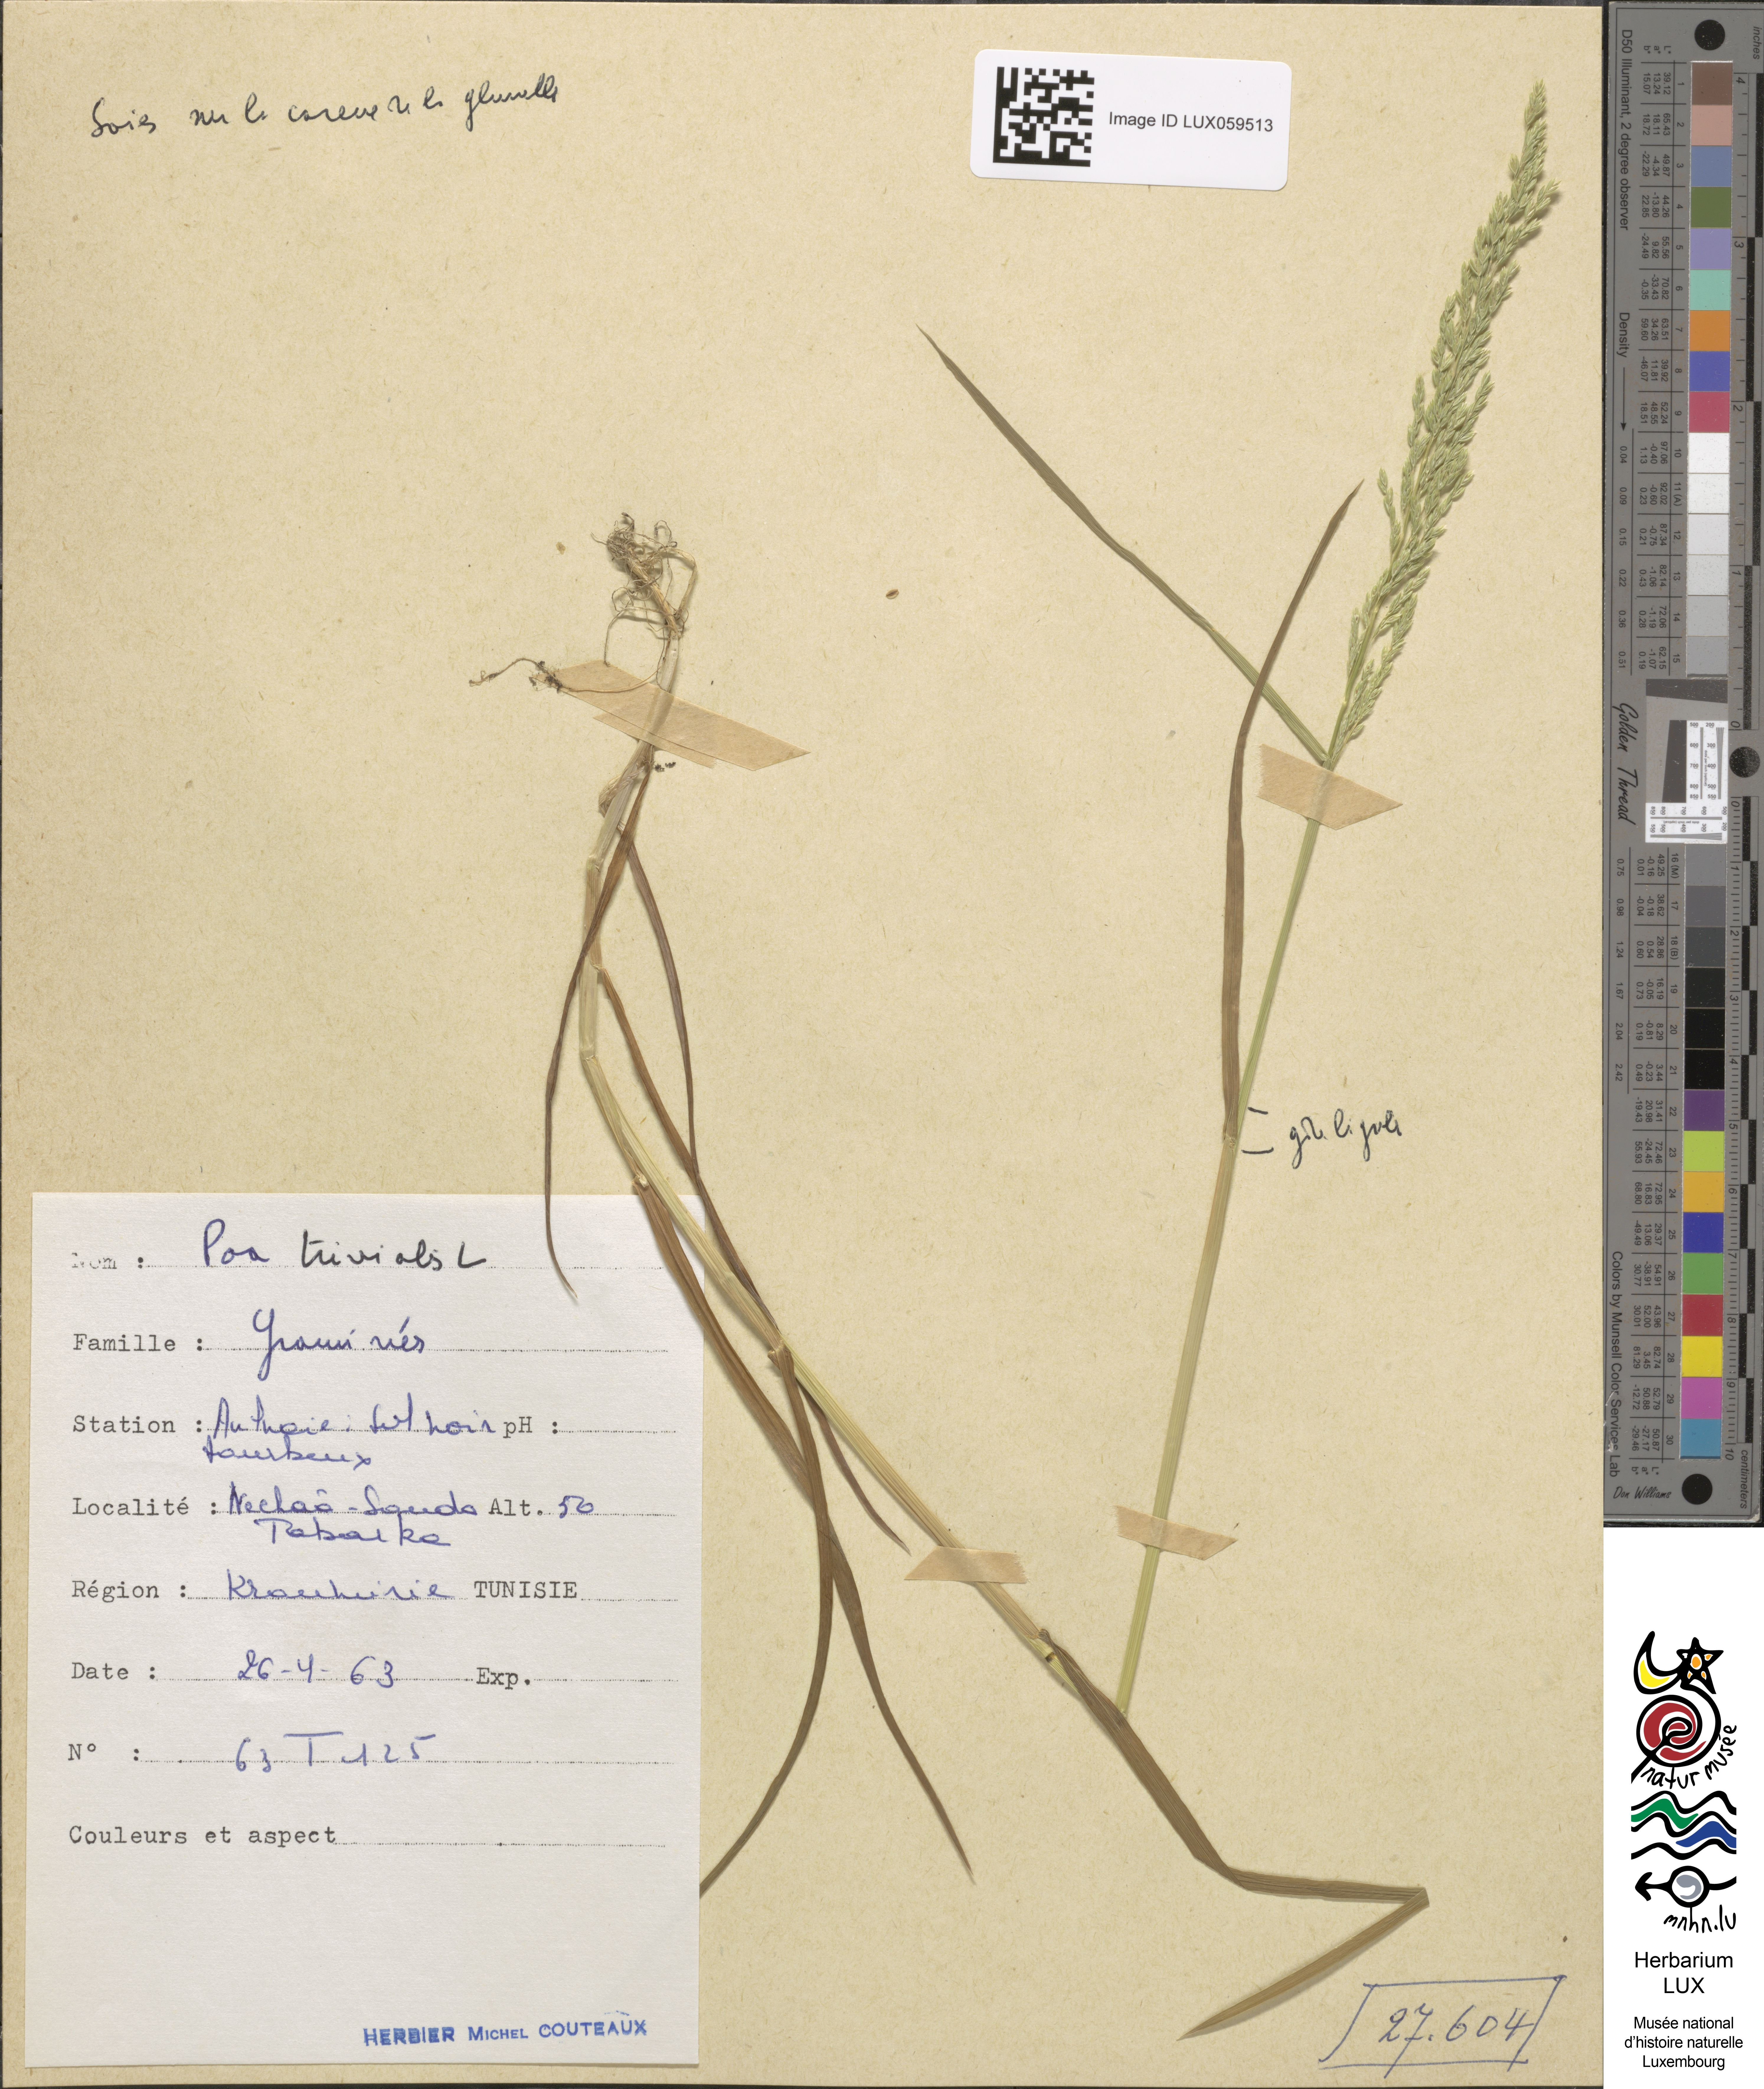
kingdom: Plantae
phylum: Tracheophyta
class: Liliopsida
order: Poales
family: Poaceae
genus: Poa
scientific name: Poa trivialis
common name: Rough bluegrass
